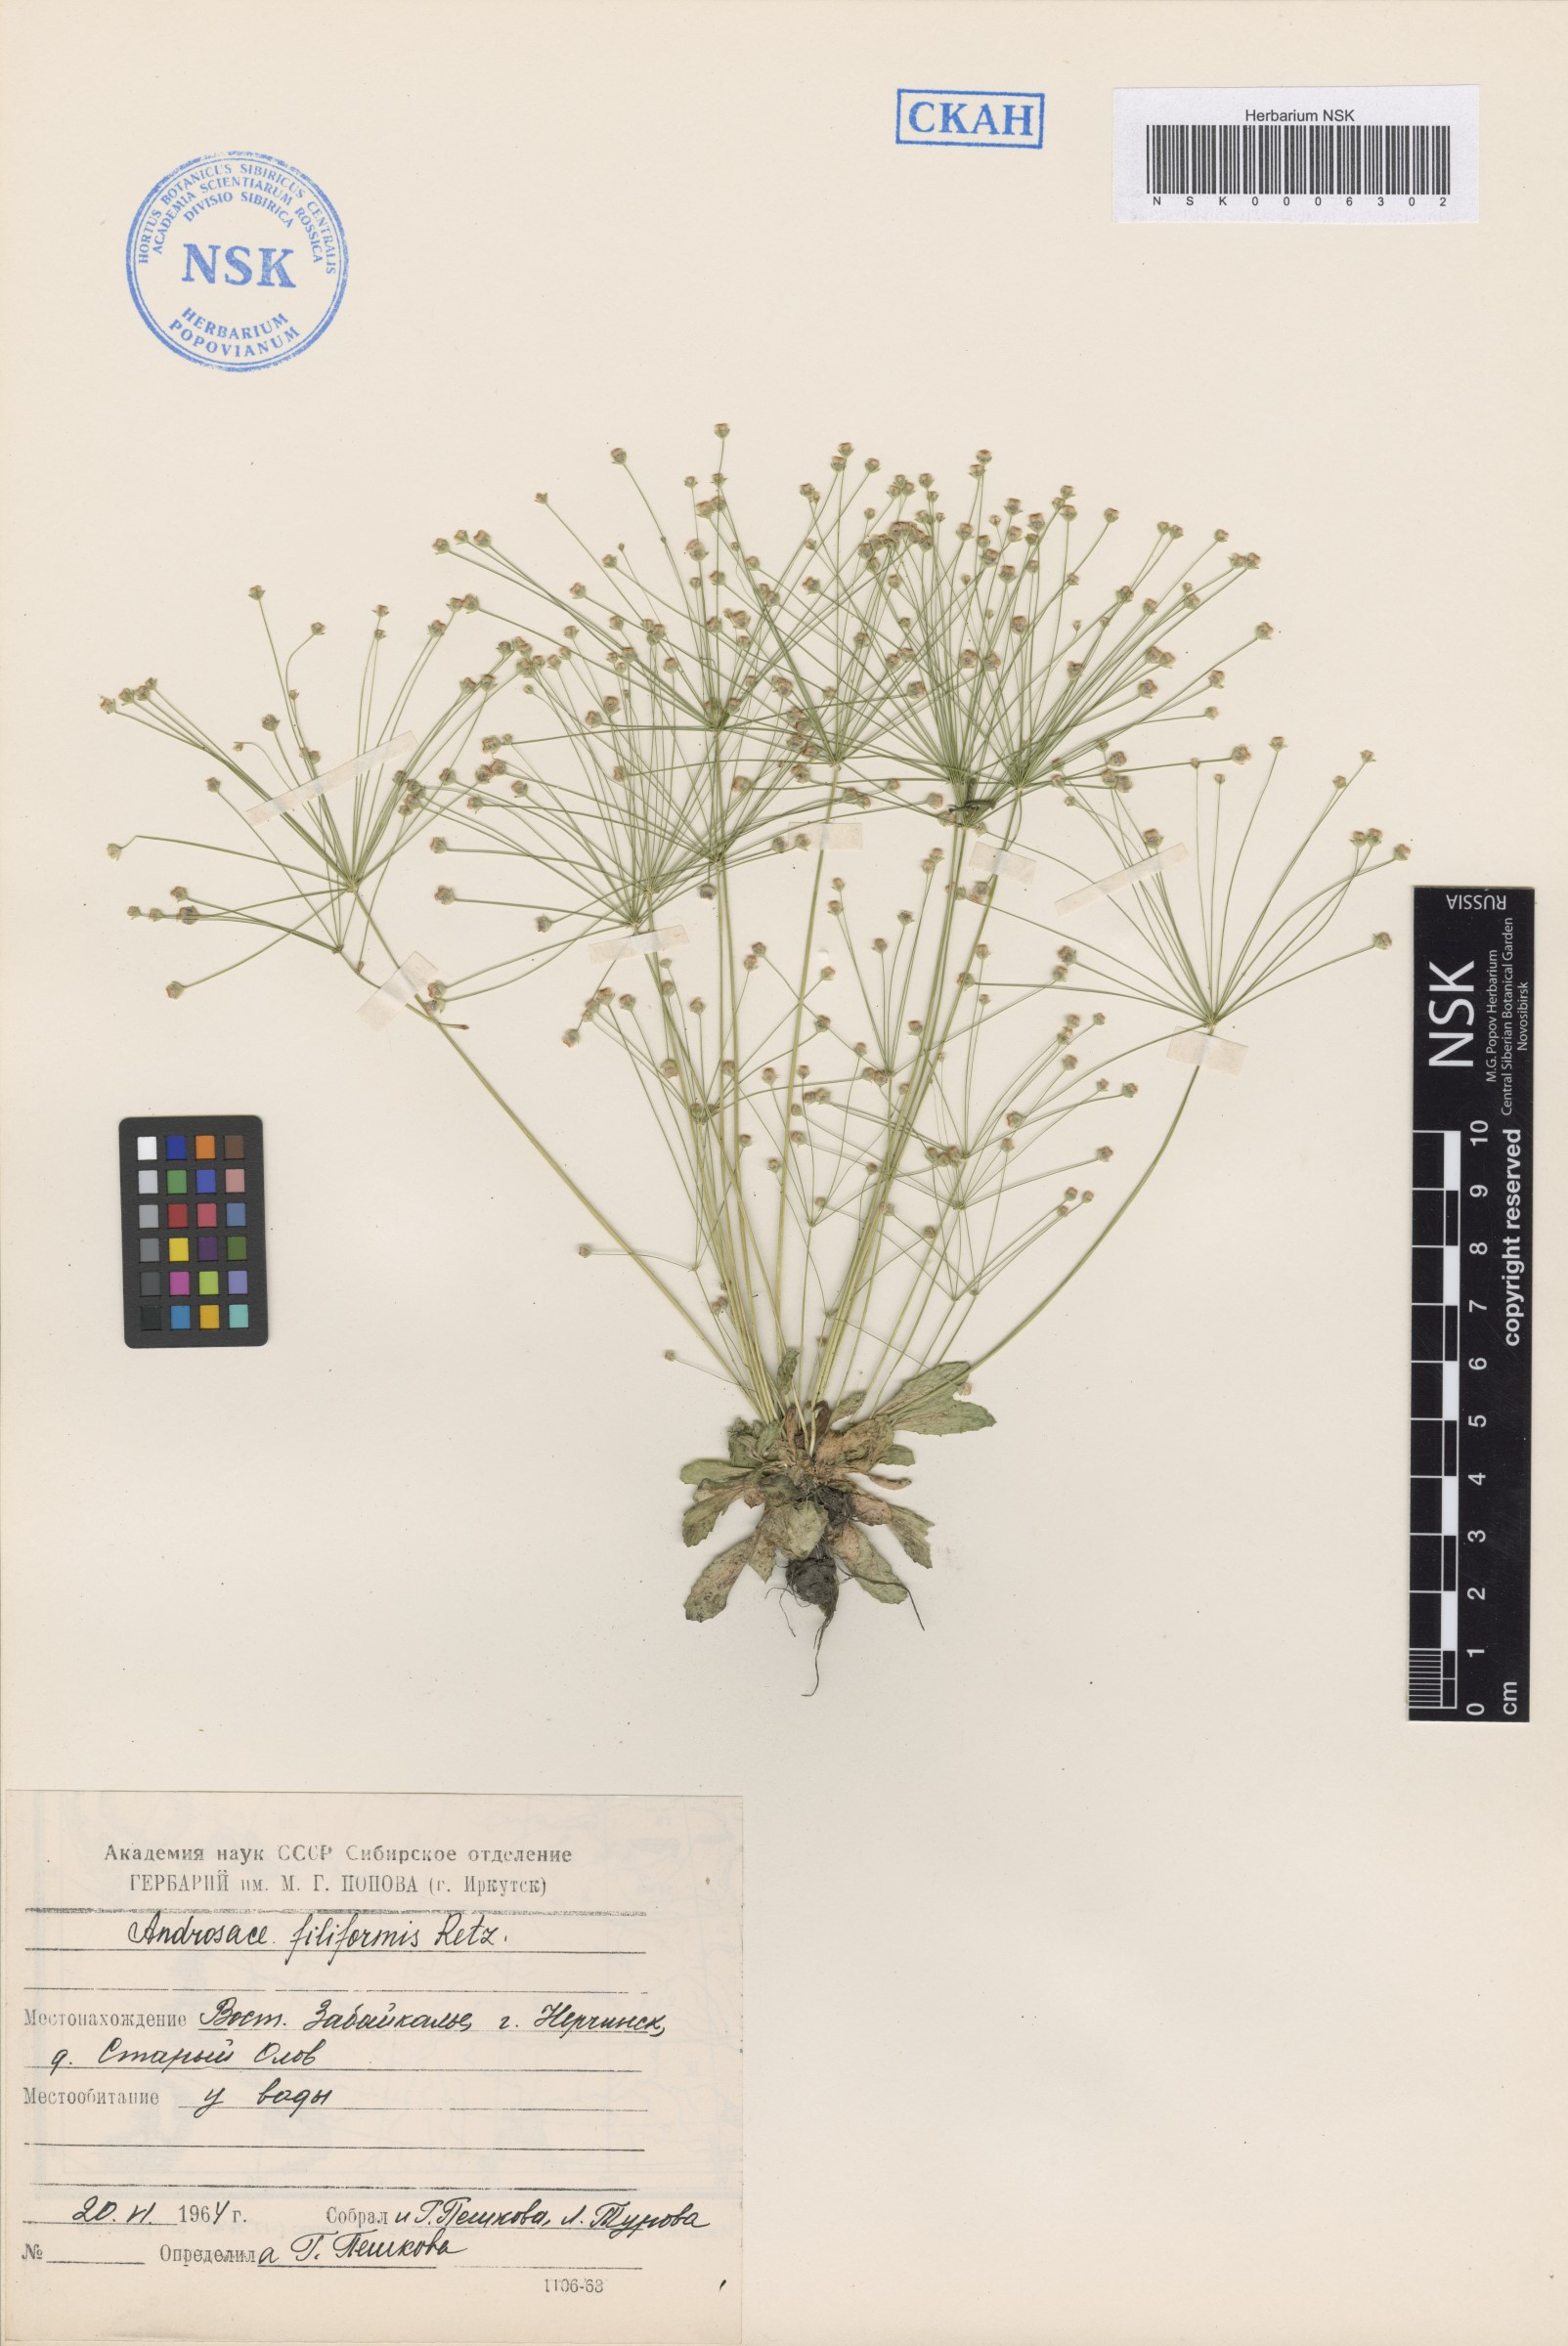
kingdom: Plantae
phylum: Tracheophyta
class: Magnoliopsida
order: Ericales
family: Primulaceae
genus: Androsace
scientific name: Androsace filiformis
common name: Filiform rock jasmine
